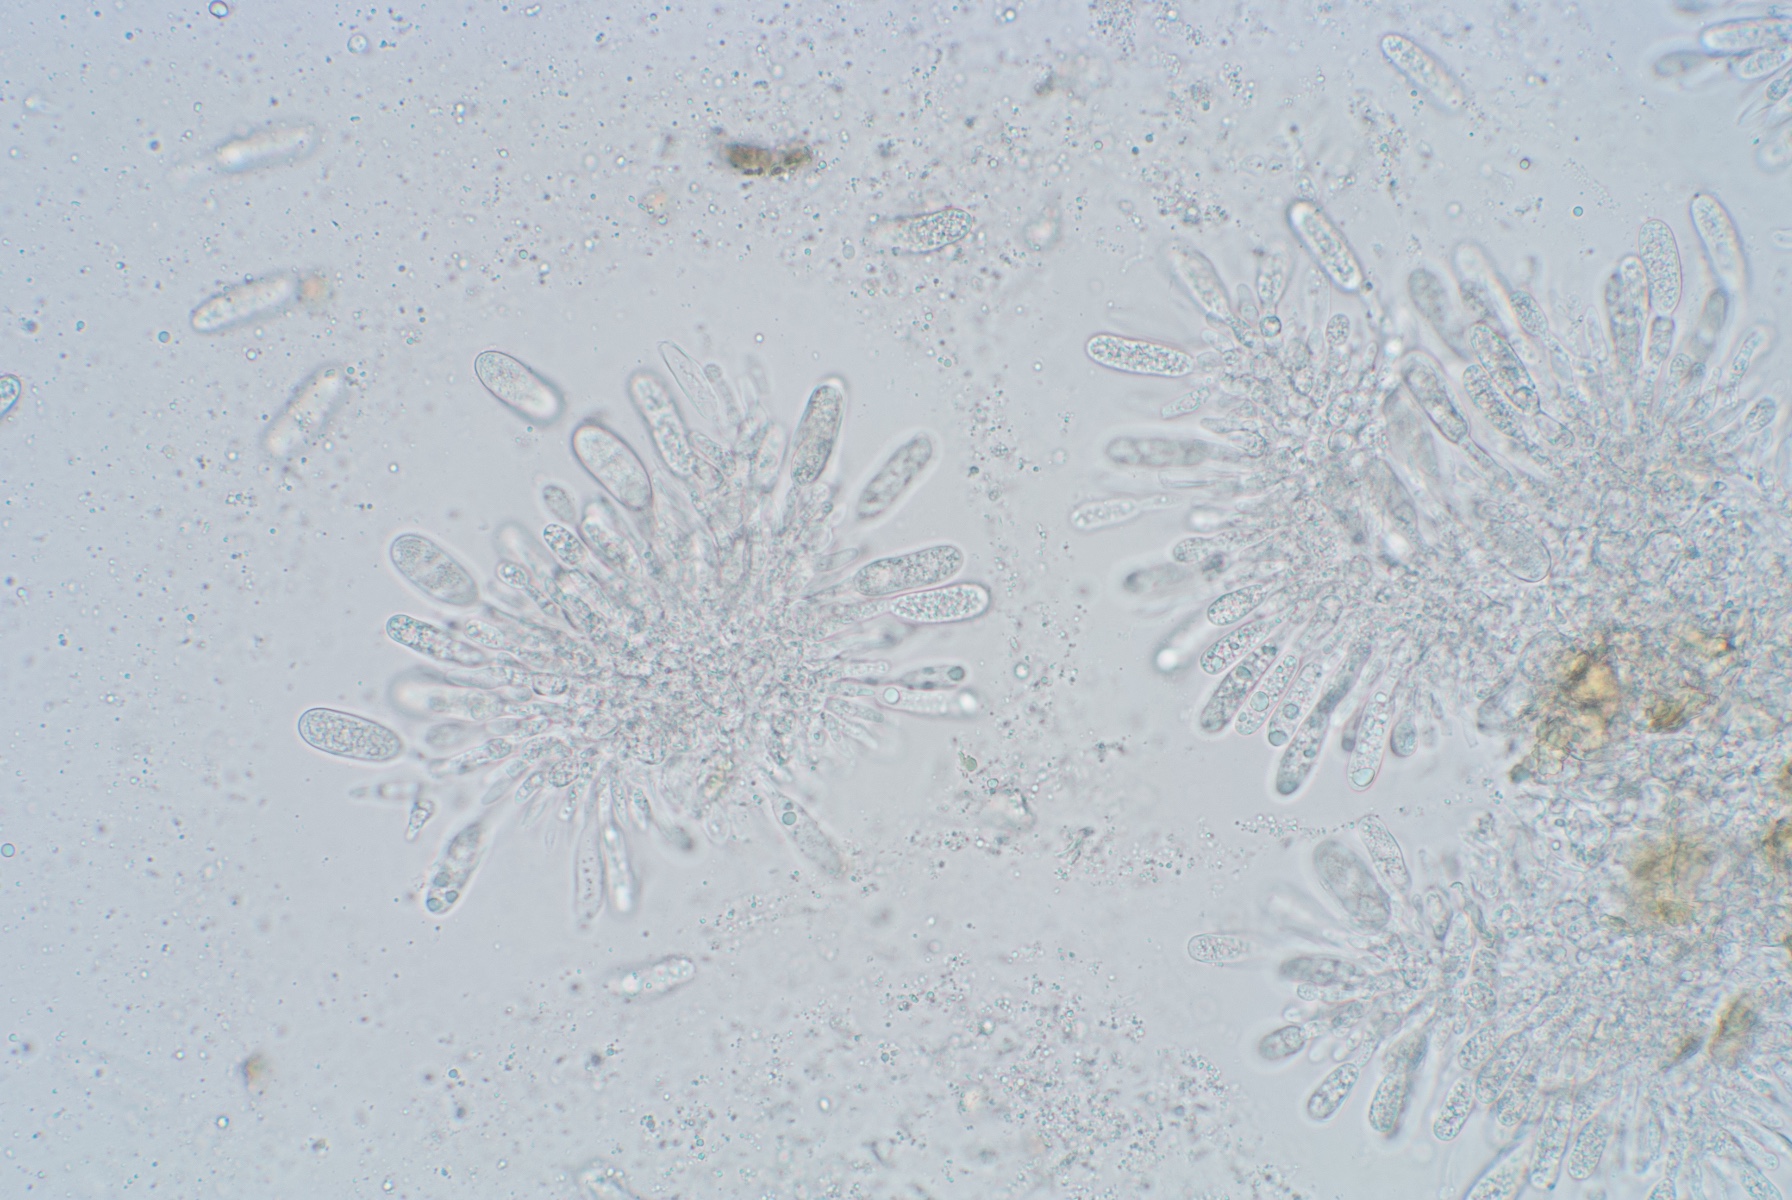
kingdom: Fungi
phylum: Ascomycota
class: Sordariomycetes
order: Diaporthales
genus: Botryodiplodia
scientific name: Botryodiplodia fraxini
